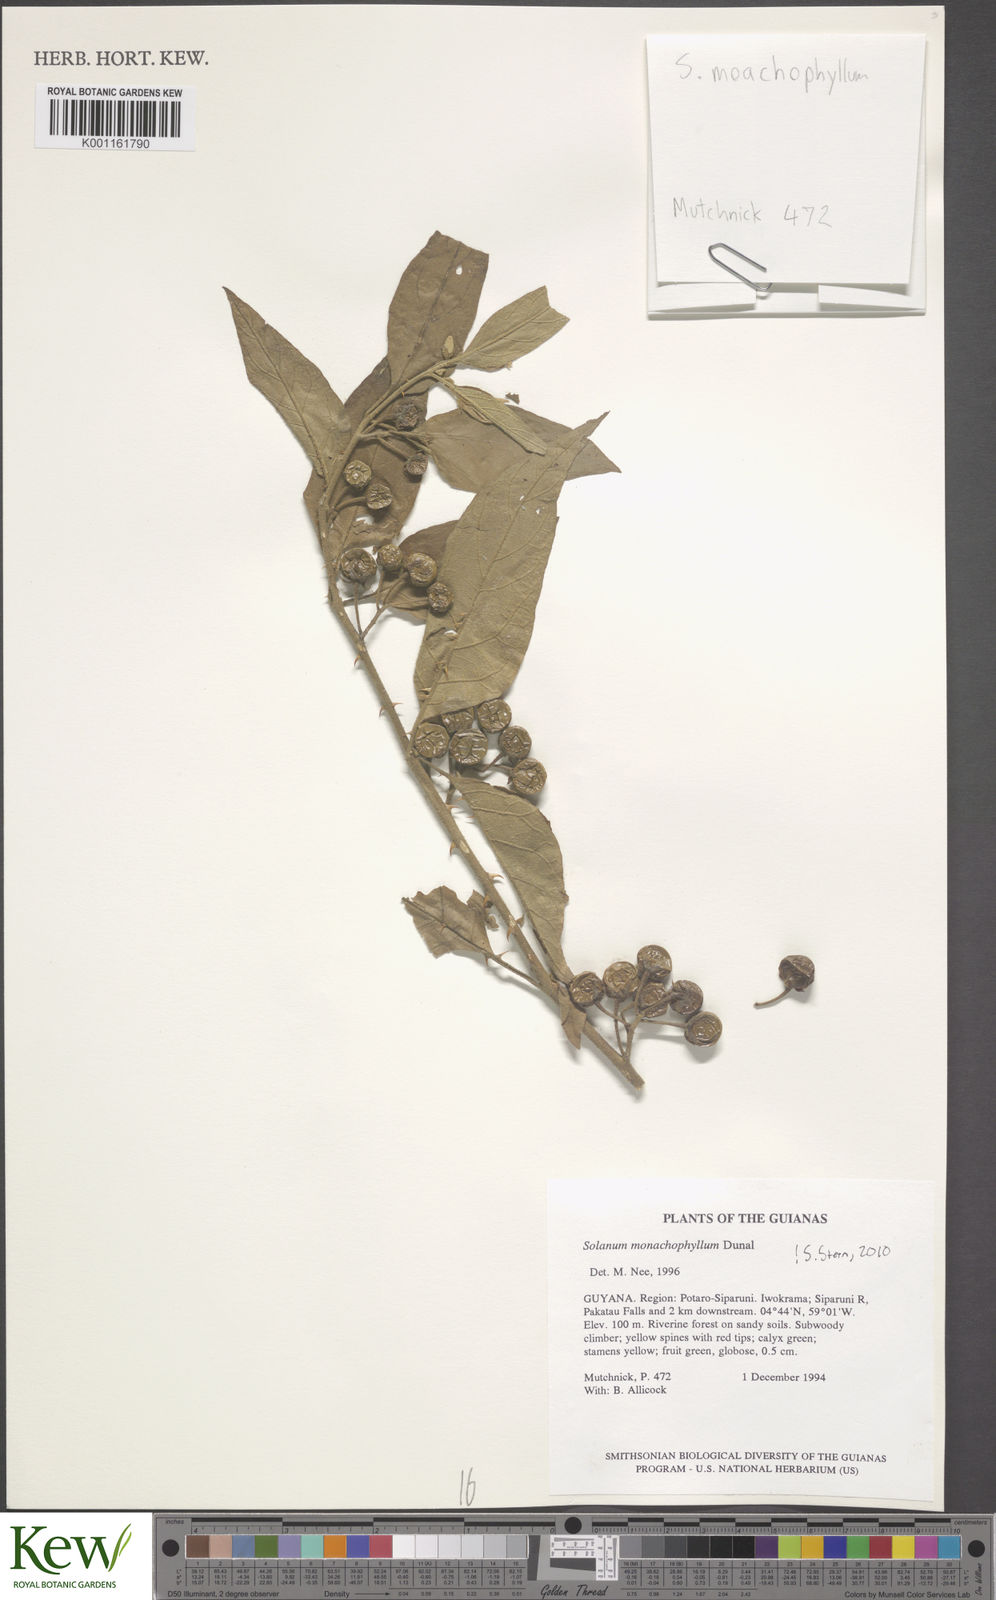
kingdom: Plantae
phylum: Tracheophyta
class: Magnoliopsida
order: Solanales
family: Solanaceae
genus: Solanum
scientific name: Solanum monachophyllum
